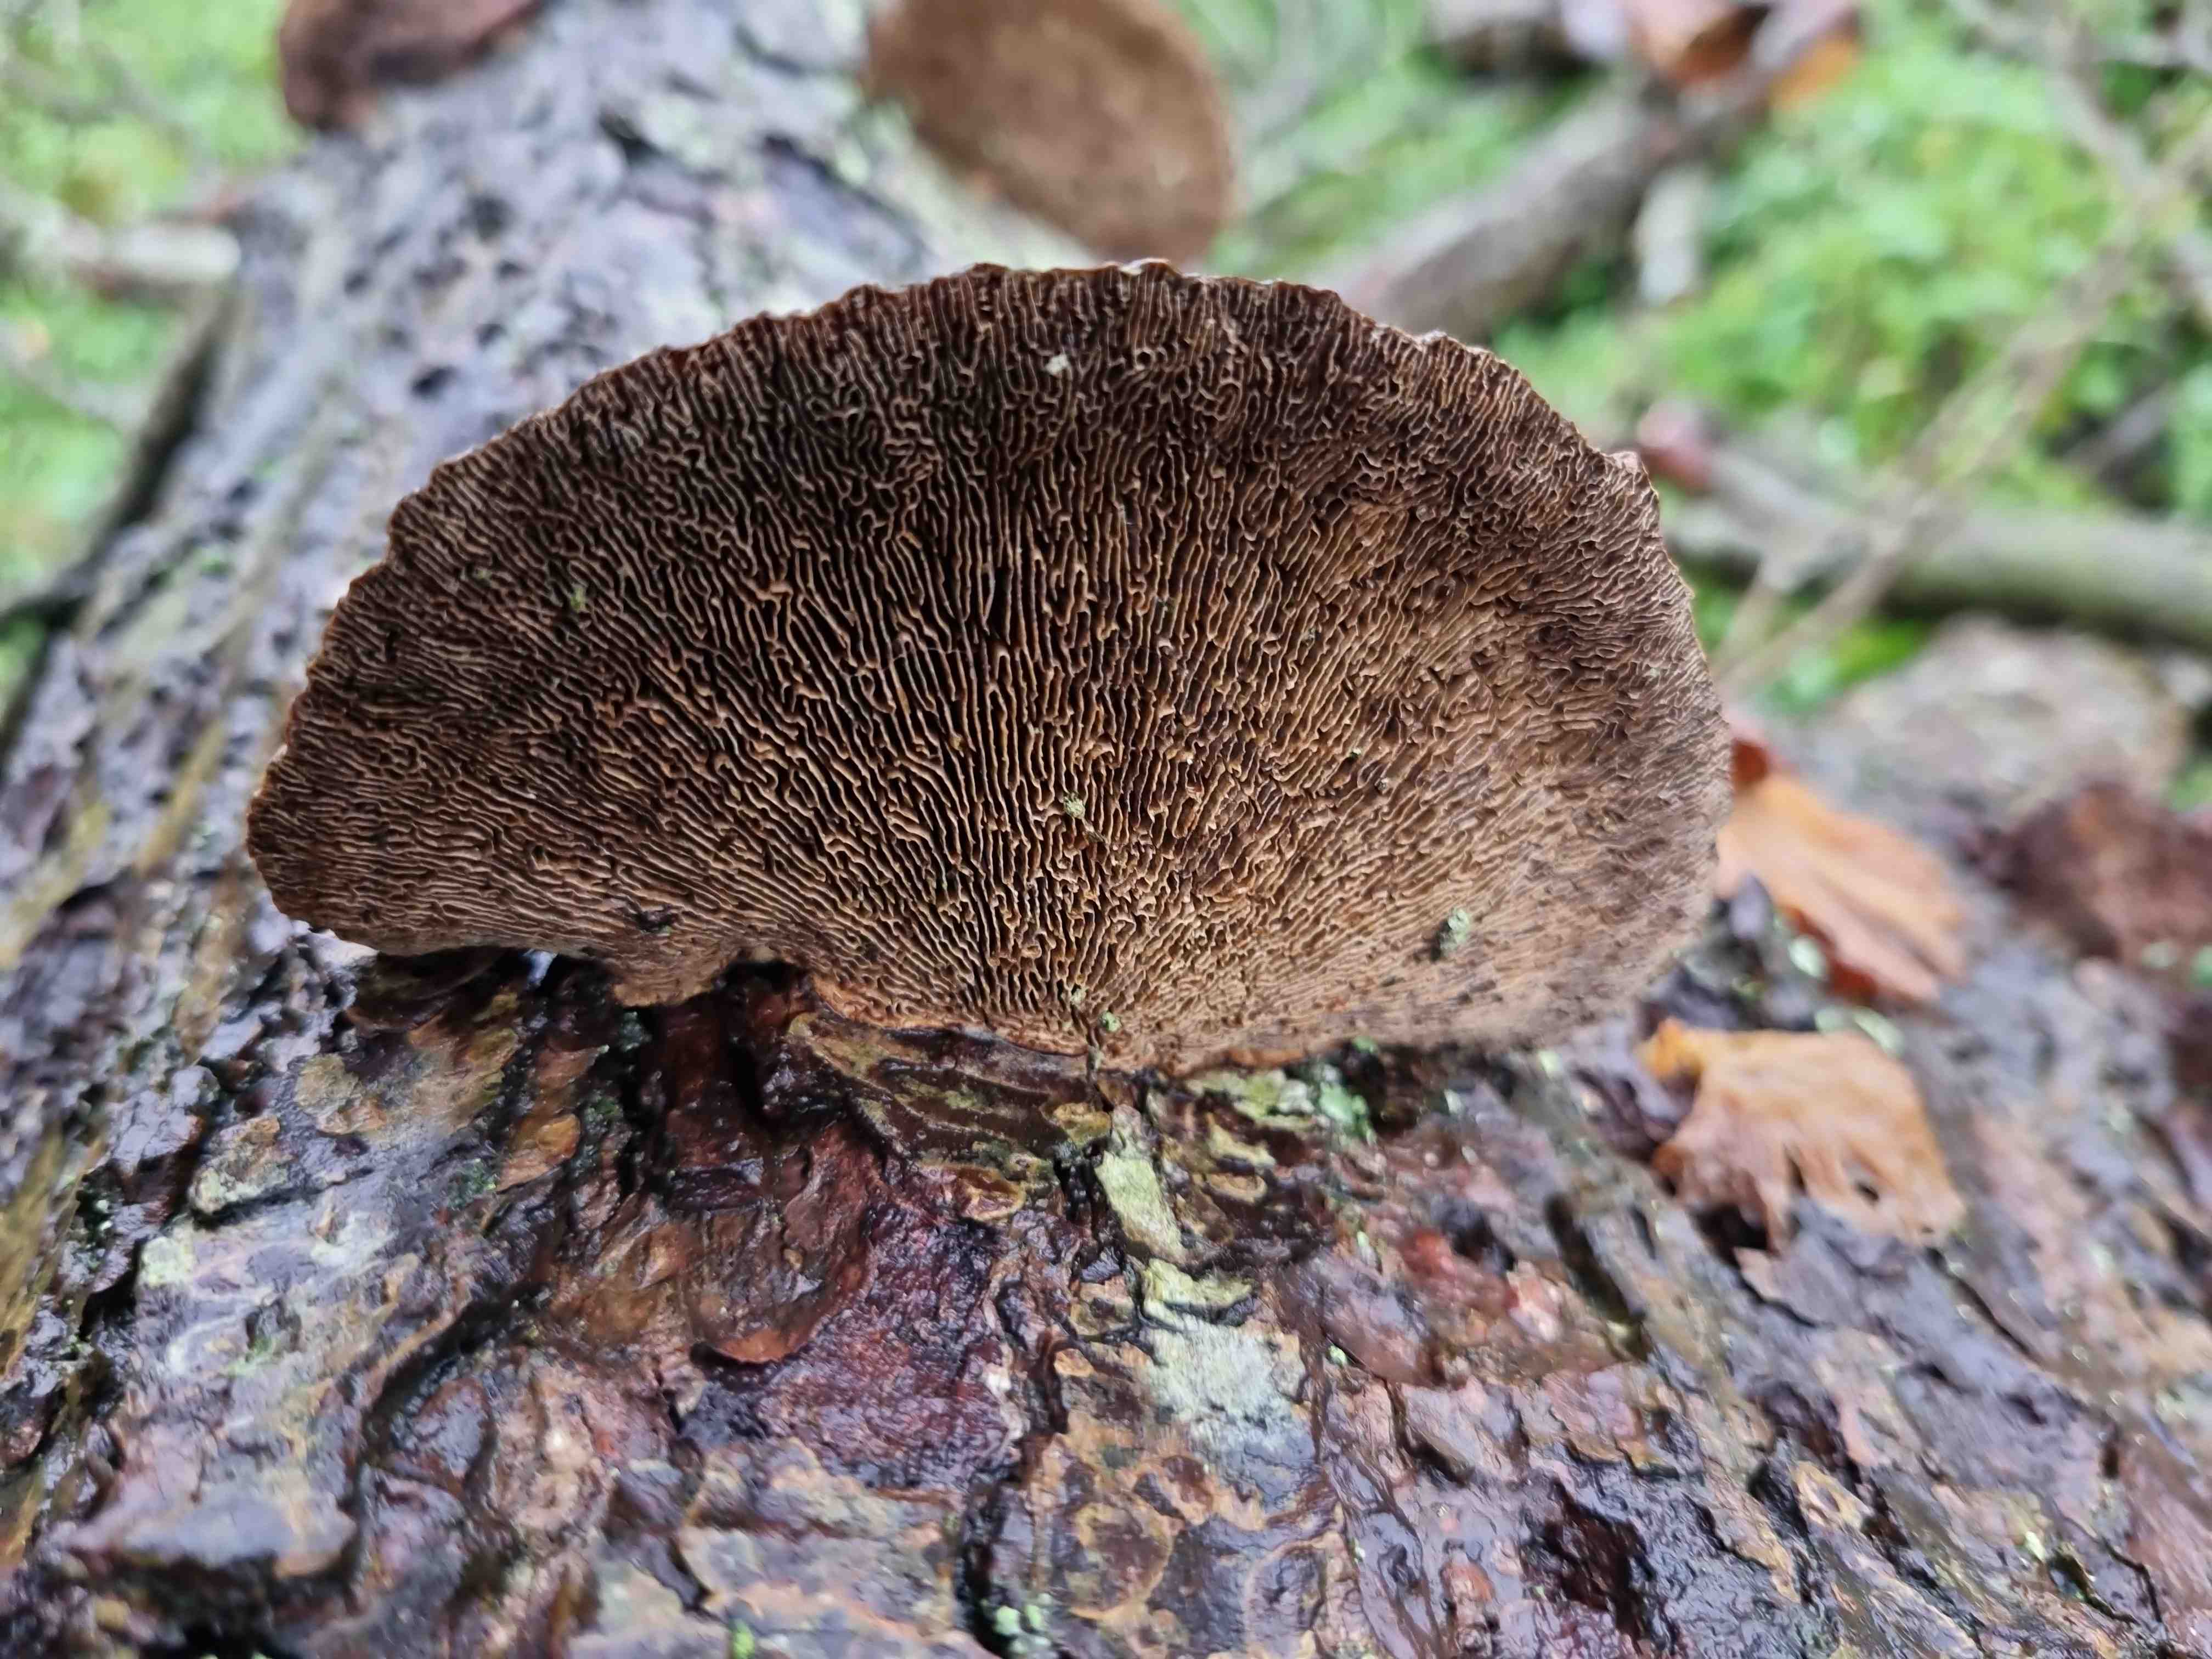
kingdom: Fungi
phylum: Basidiomycota
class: Agaricomycetes
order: Polyporales
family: Polyporaceae
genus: Daedaleopsis
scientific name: Daedaleopsis confragosa
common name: rødmende læderporesvamp
